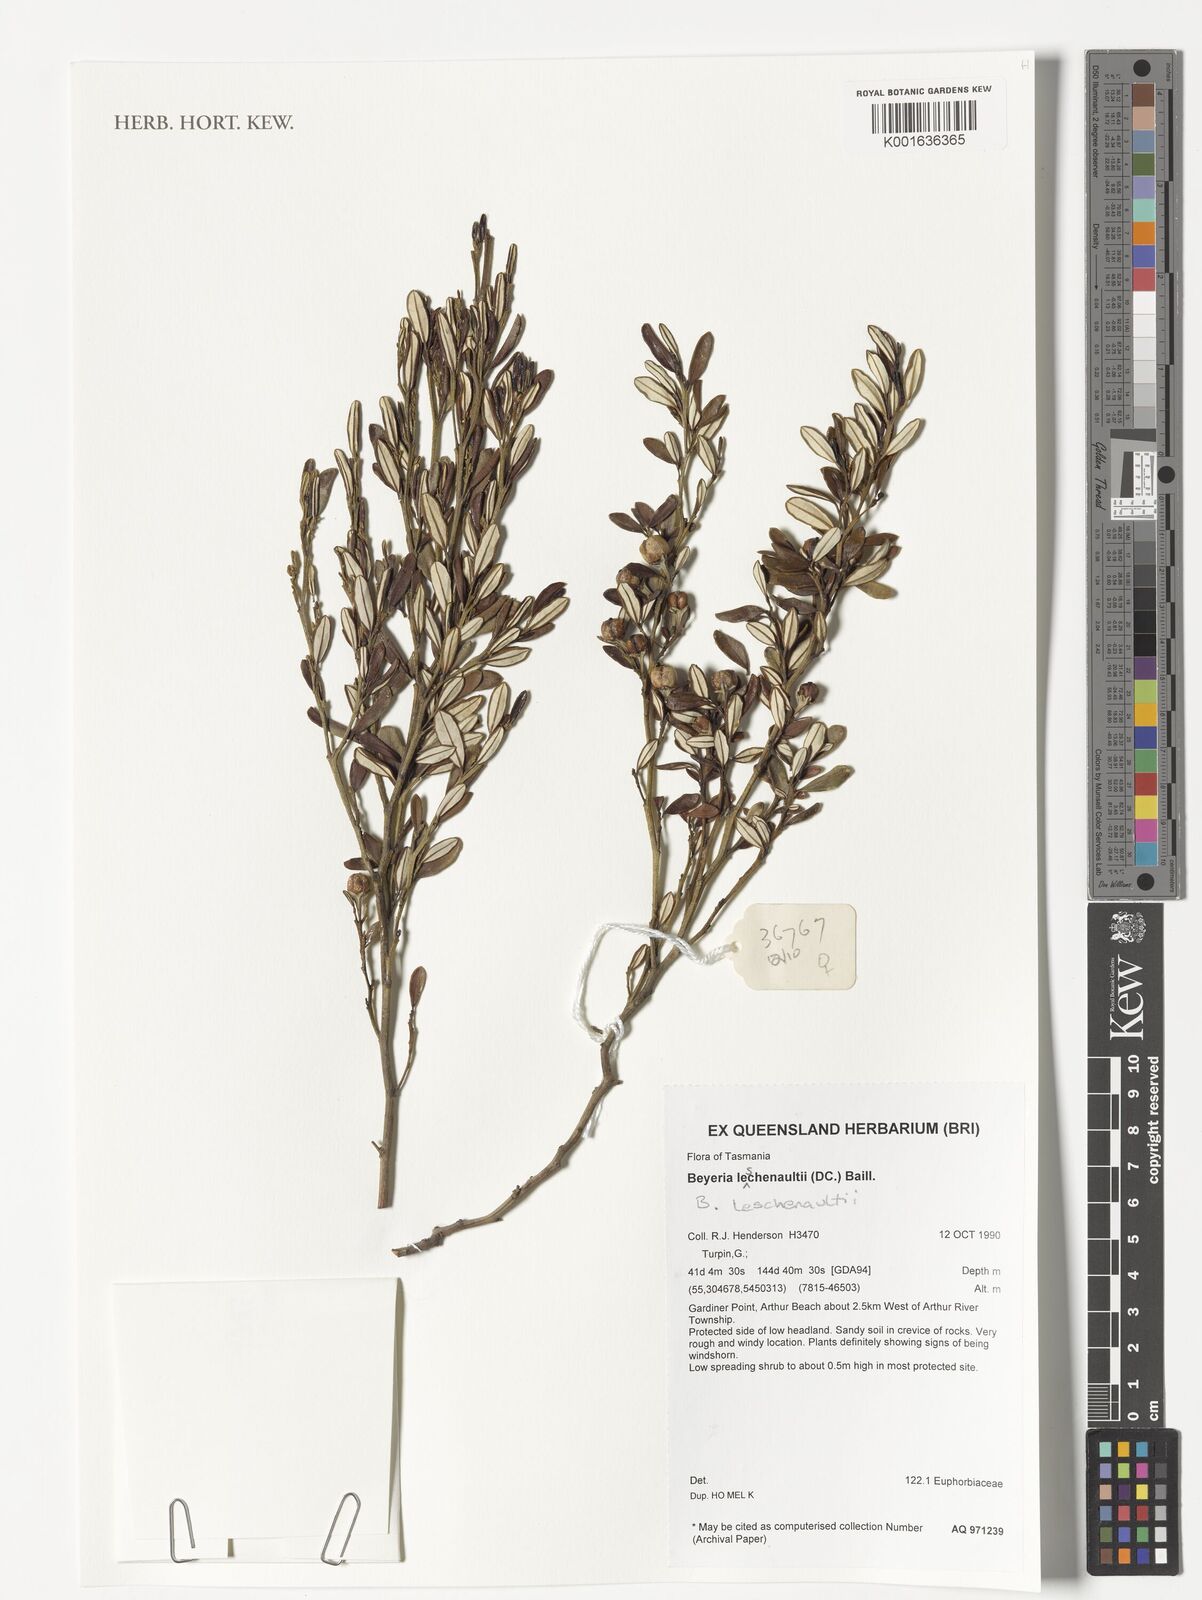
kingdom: Plantae
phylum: Tracheophyta
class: Magnoliopsida
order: Malpighiales
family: Euphorbiaceae
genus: Beyeria
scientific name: Beyeria lechenaultii
